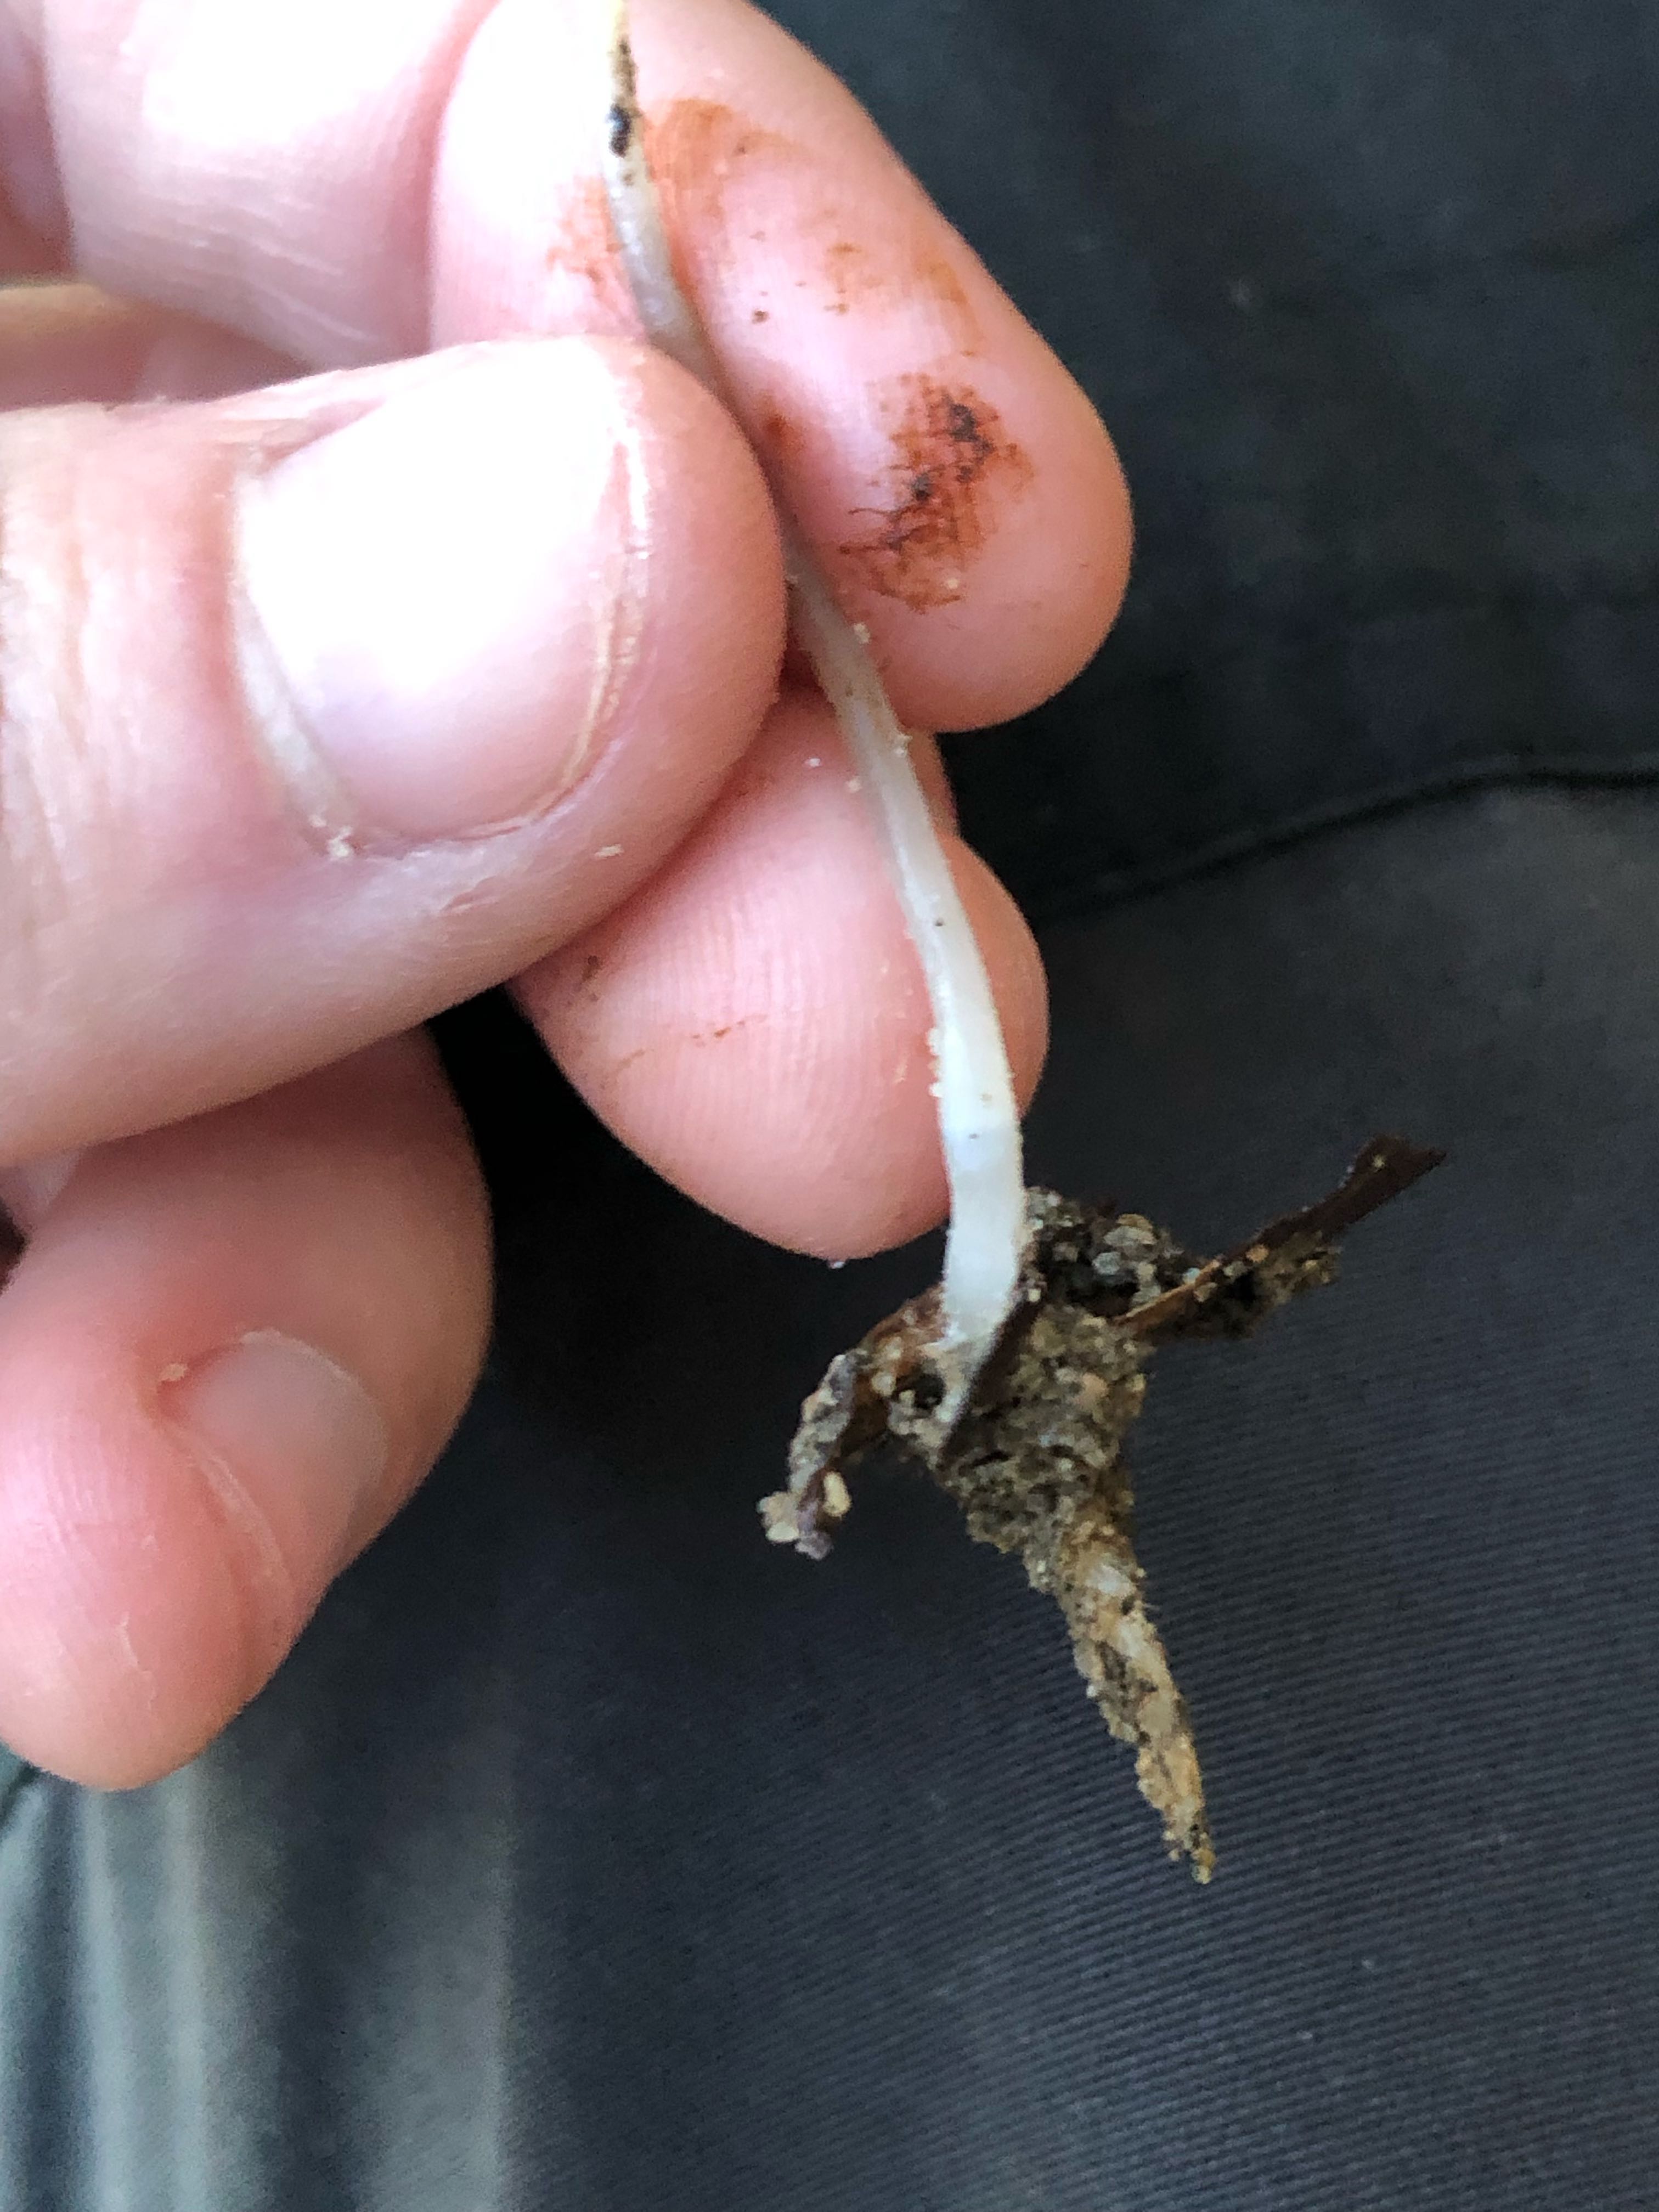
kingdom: Fungi
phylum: Basidiomycota
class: Agaricomycetes
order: Agaricales
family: Mycenaceae
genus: Mycena
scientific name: Mycena vitilis
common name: blankstokket huesvamp
